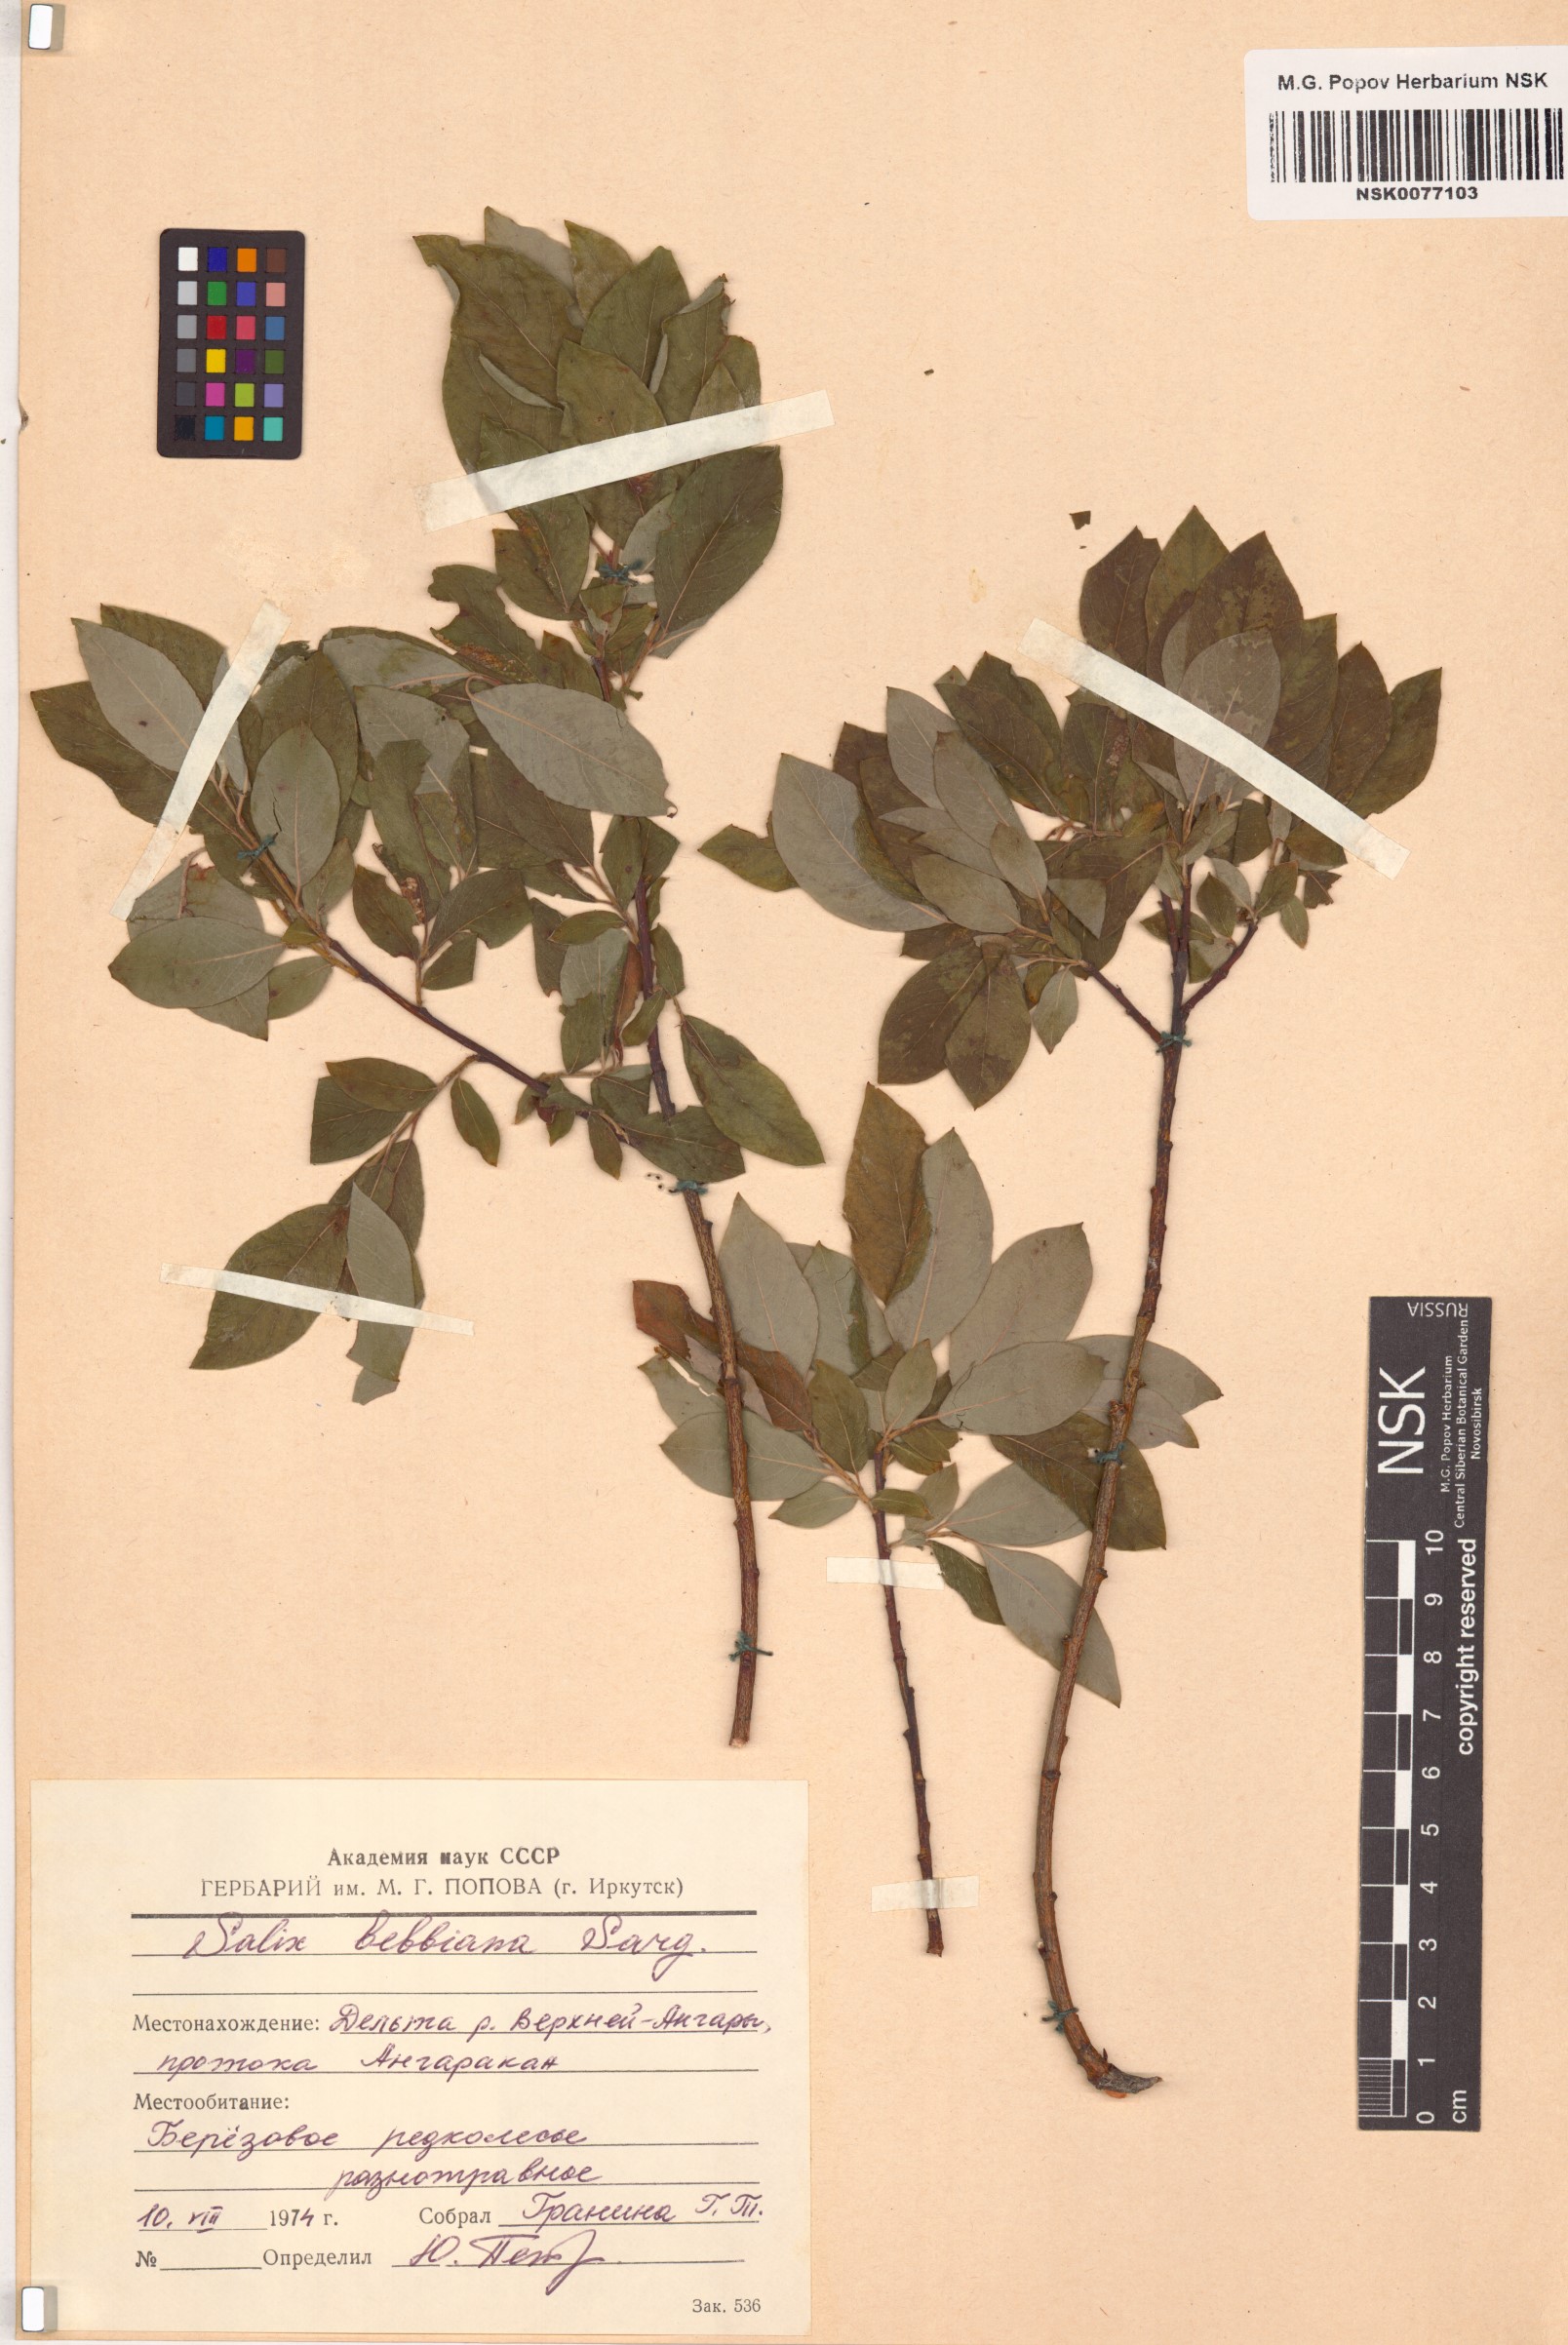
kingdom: Plantae
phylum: Tracheophyta
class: Magnoliopsida
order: Malpighiales
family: Salicaceae
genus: Salix
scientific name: Salix bebbiana
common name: Bebb's willow
